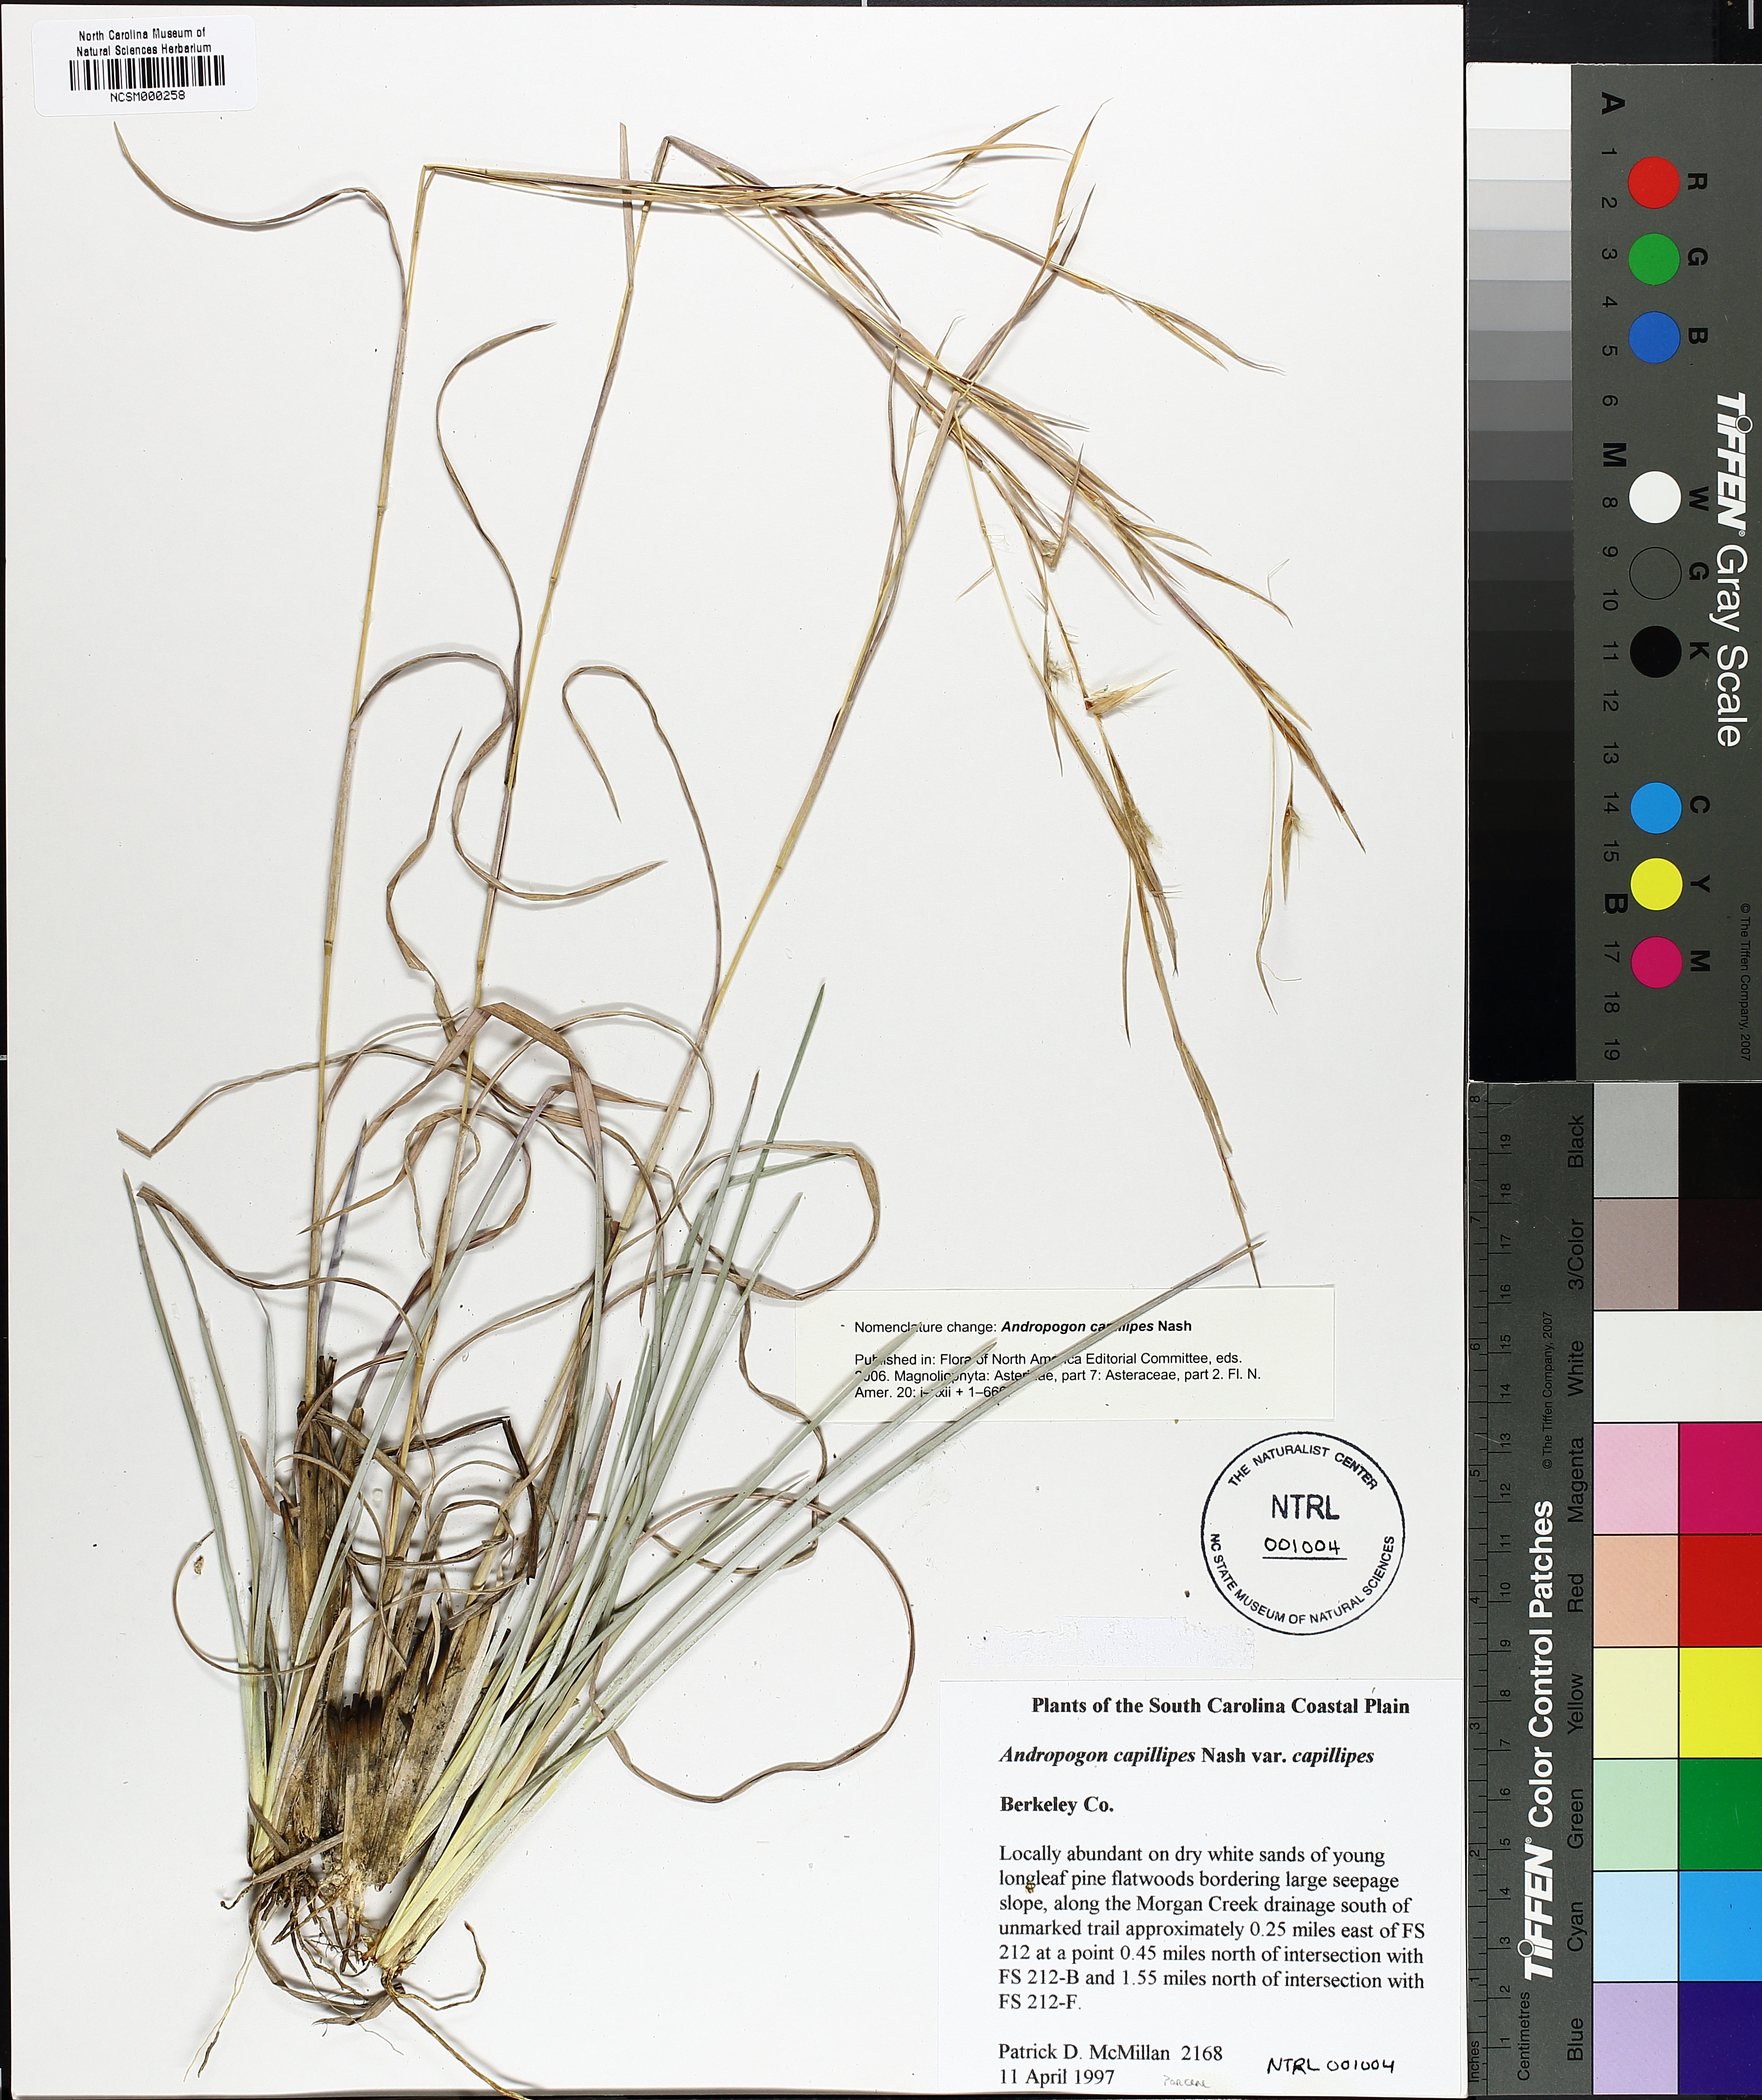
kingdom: Plantae
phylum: Tracheophyta
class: Liliopsida
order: Poales
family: Poaceae
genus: Andropogon
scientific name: Andropogon capillipes
